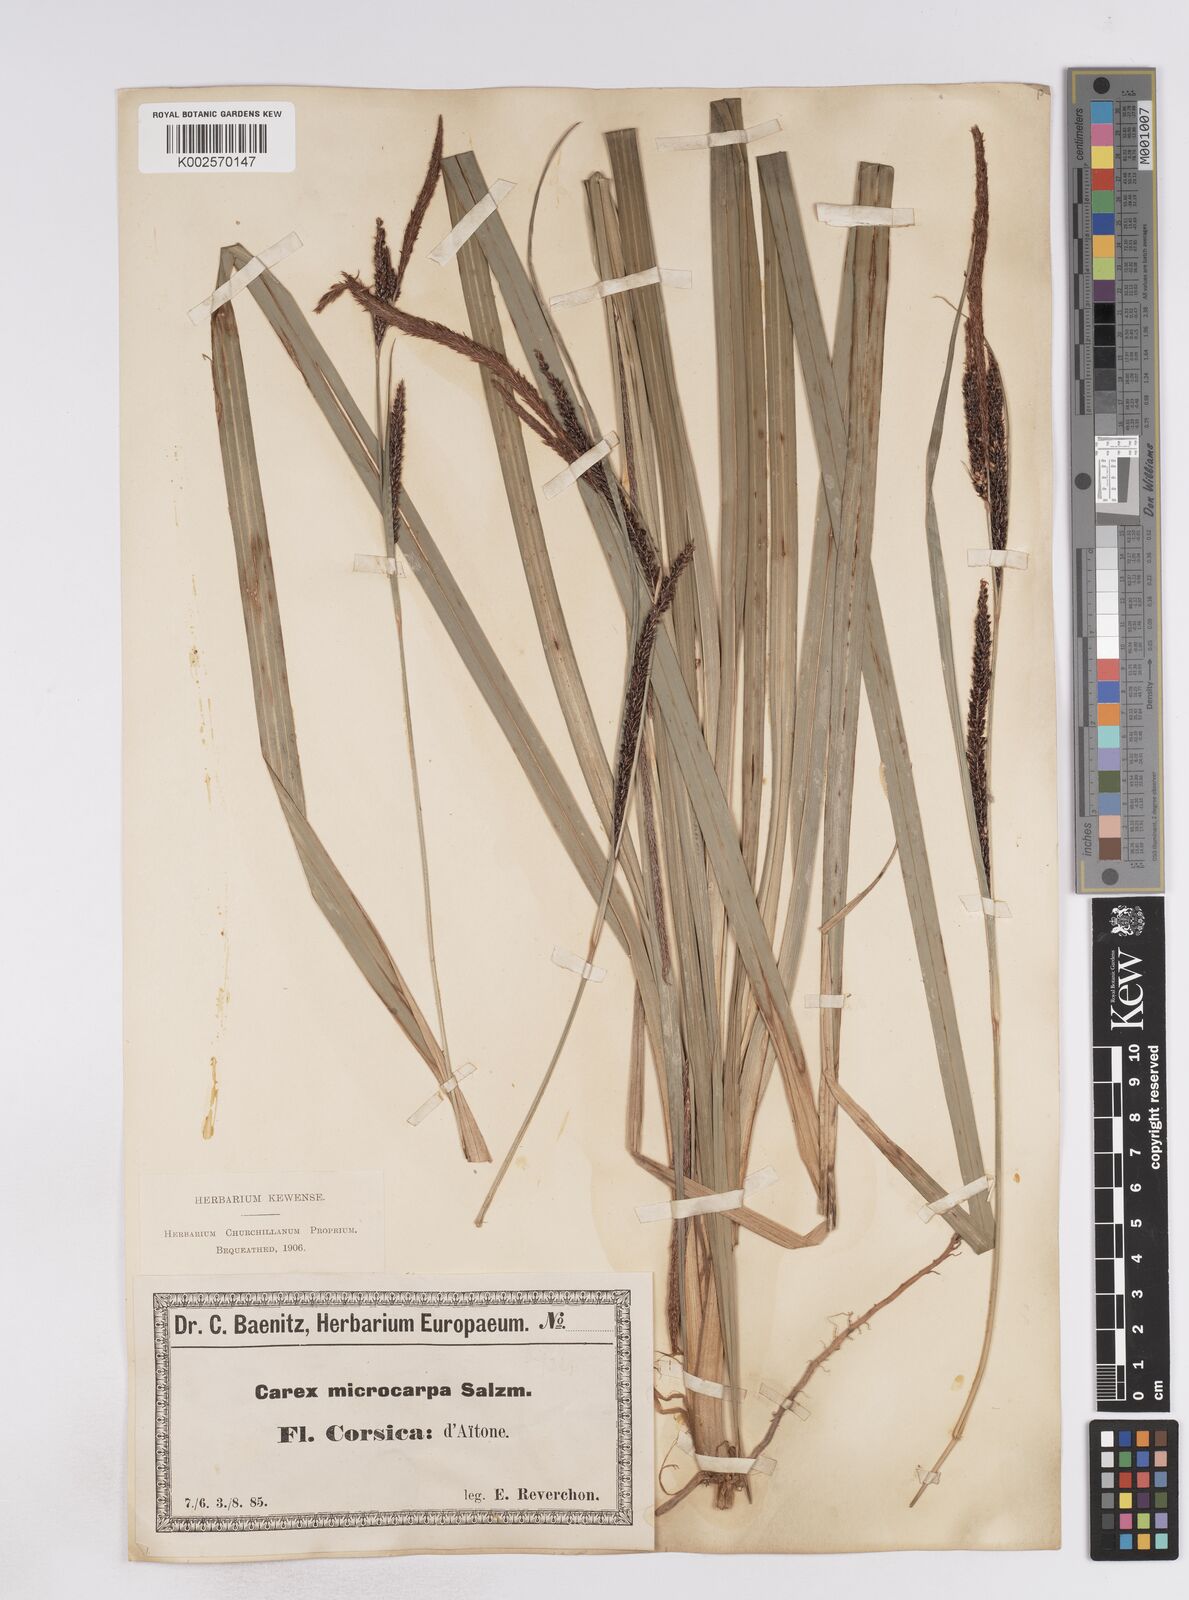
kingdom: Plantae
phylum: Tracheophyta
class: Liliopsida
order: Poales
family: Cyperaceae
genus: Carex
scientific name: Carex microcarpa
